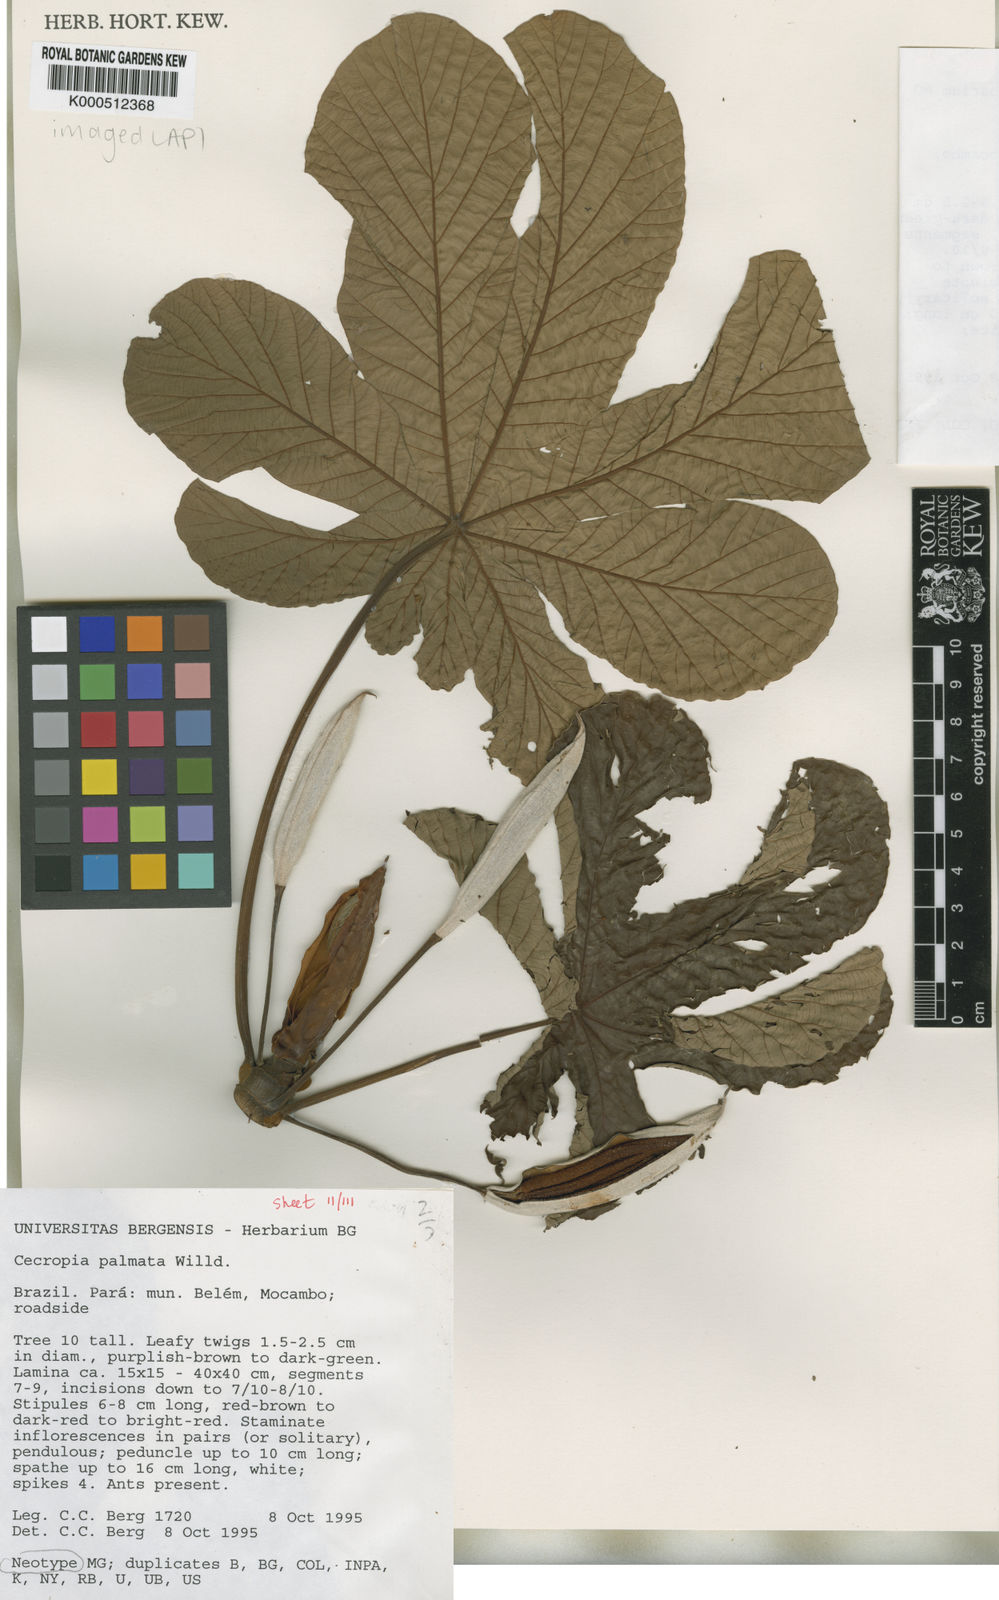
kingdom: Plantae
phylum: Tracheophyta
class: Magnoliopsida
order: Rosales
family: Urticaceae
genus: Cecropia
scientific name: Cecropia palmata
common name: Trumpet tree
